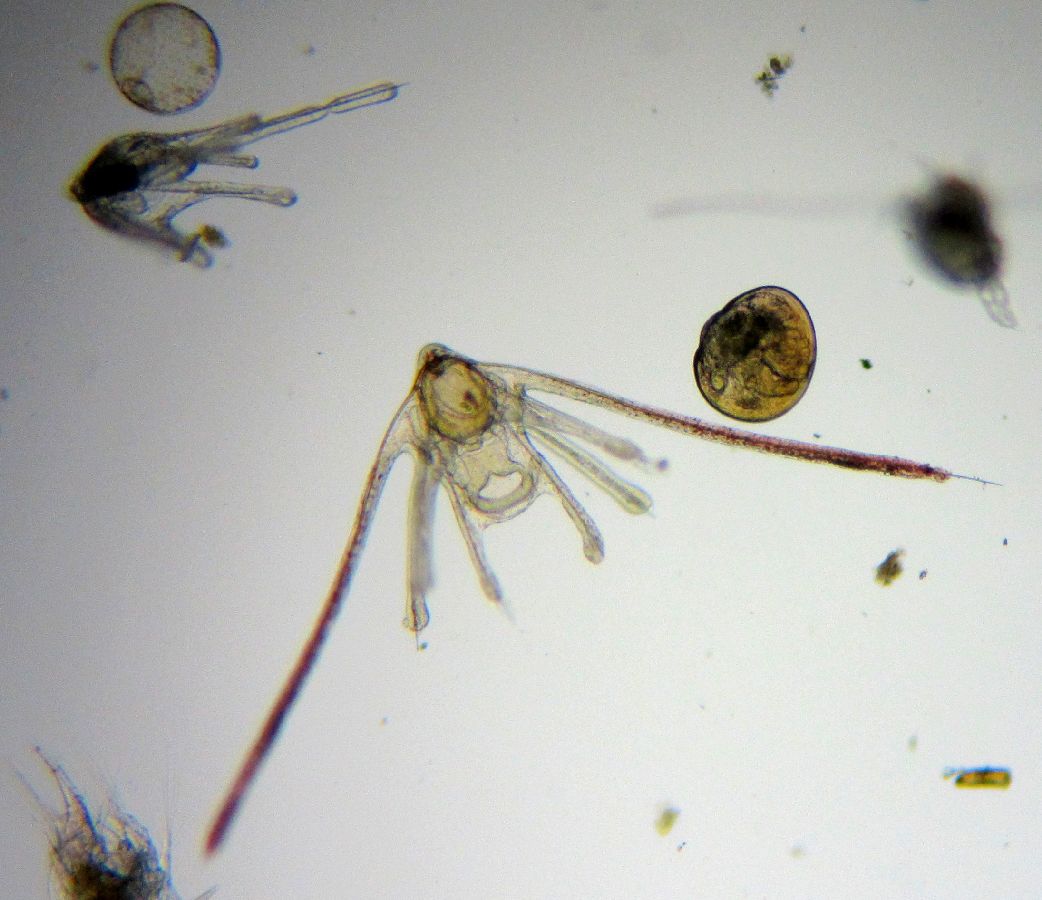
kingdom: Animalia
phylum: Echinodermata
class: Ophiuroidea
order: Amphilepidida
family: Ophiopholidae
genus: Ophiopholis
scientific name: Ophiopholis aculeata
